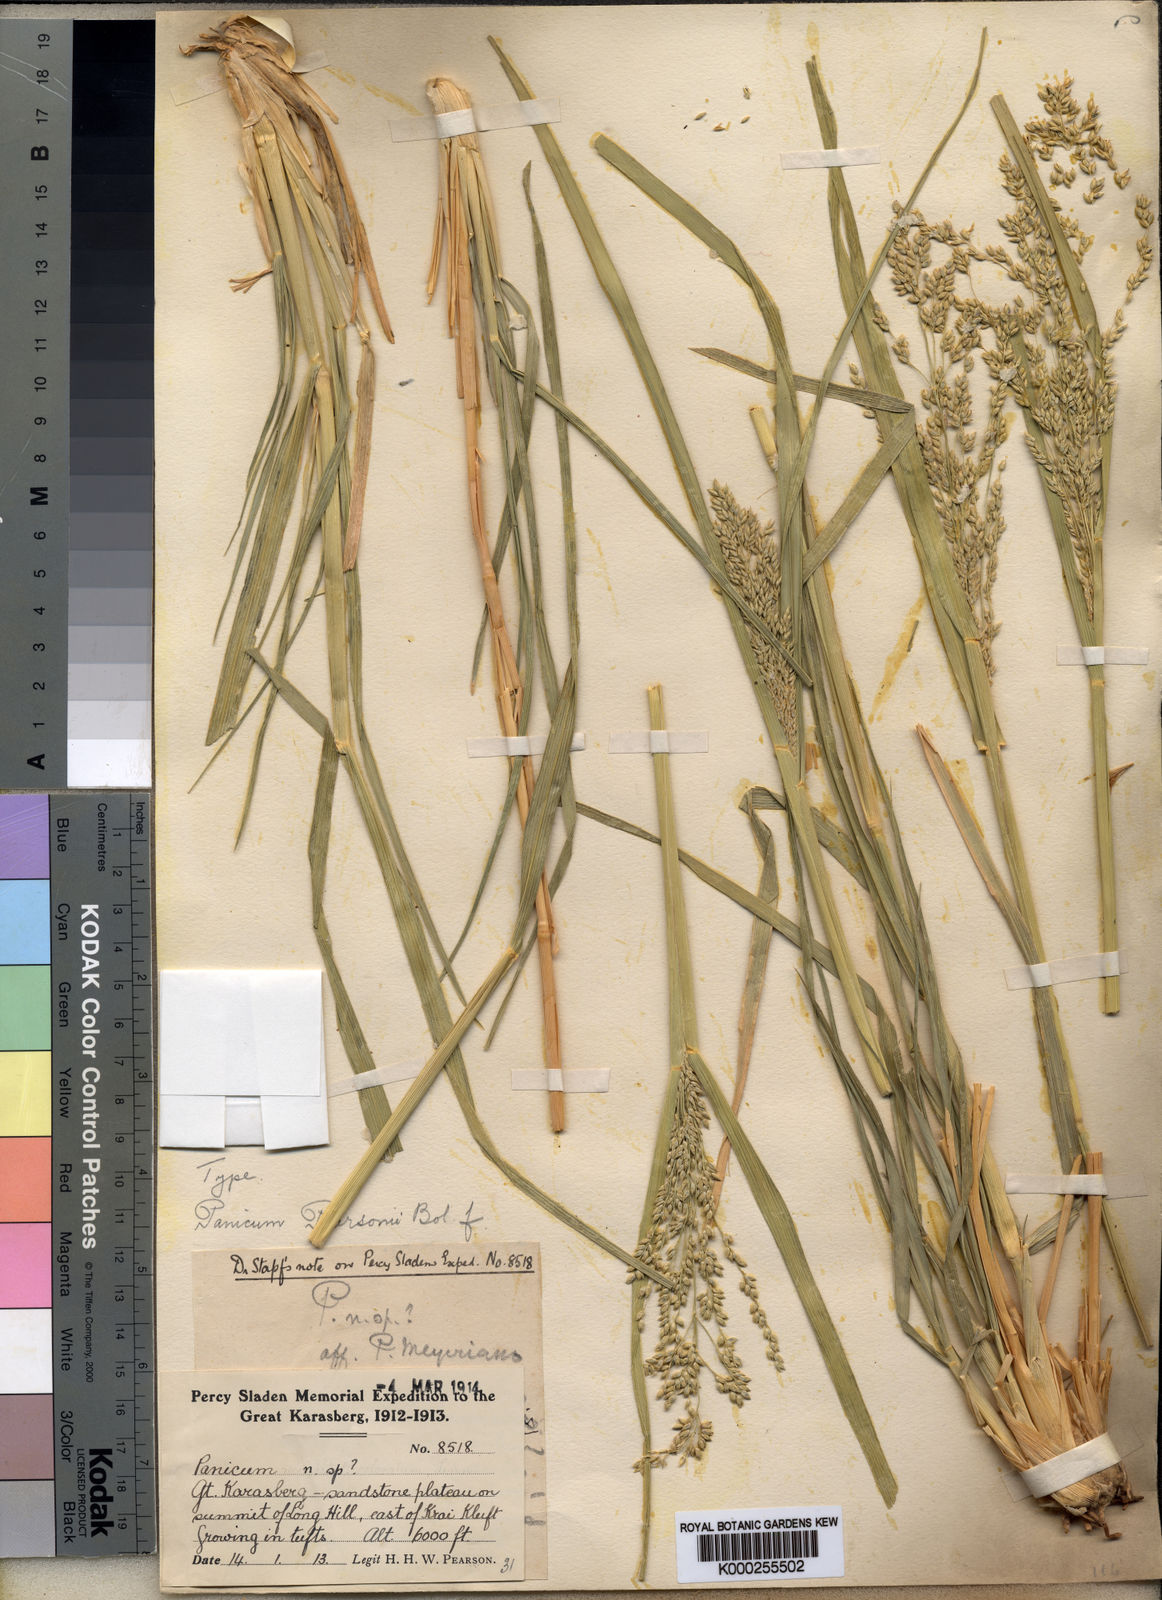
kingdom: Plantae
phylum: Tracheophyta
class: Liliopsida
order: Poales
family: Poaceae
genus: Panicum
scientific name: Panicum pearsonii
